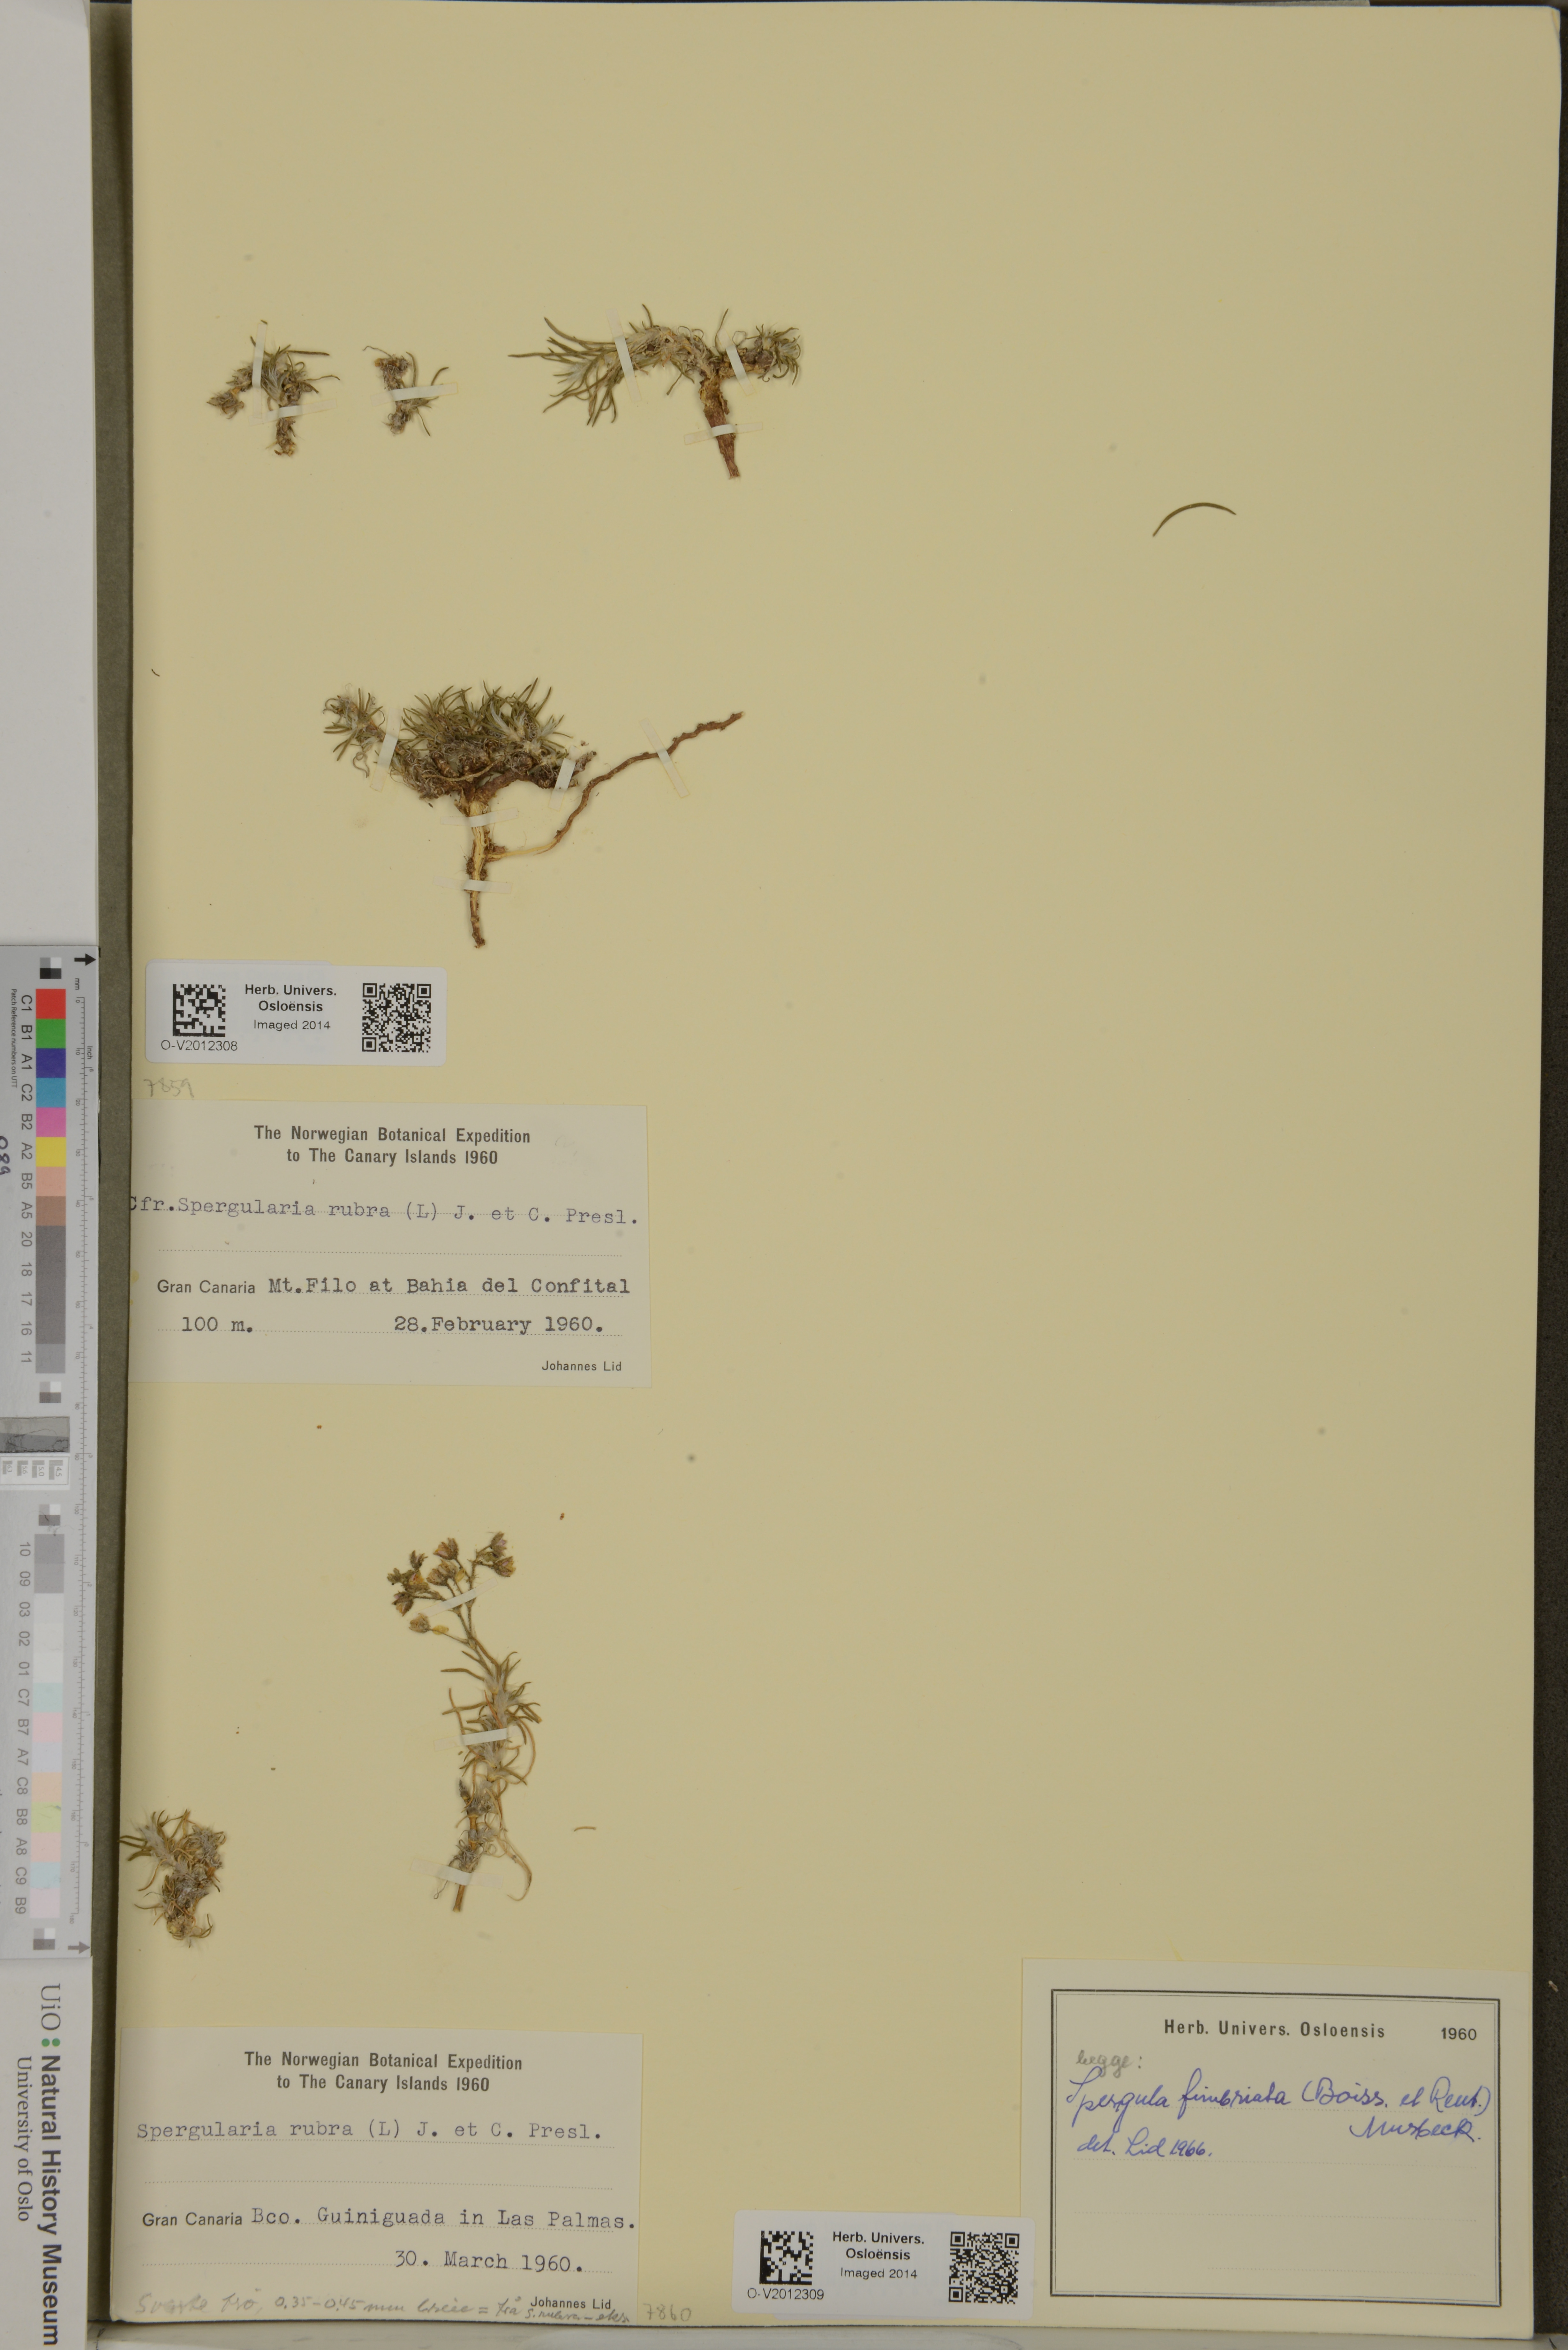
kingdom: Plantae
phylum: Tracheophyta
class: Magnoliopsida
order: Caryophyllales
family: Caryophyllaceae
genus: Spergularia
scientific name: Spergularia fimbriata
